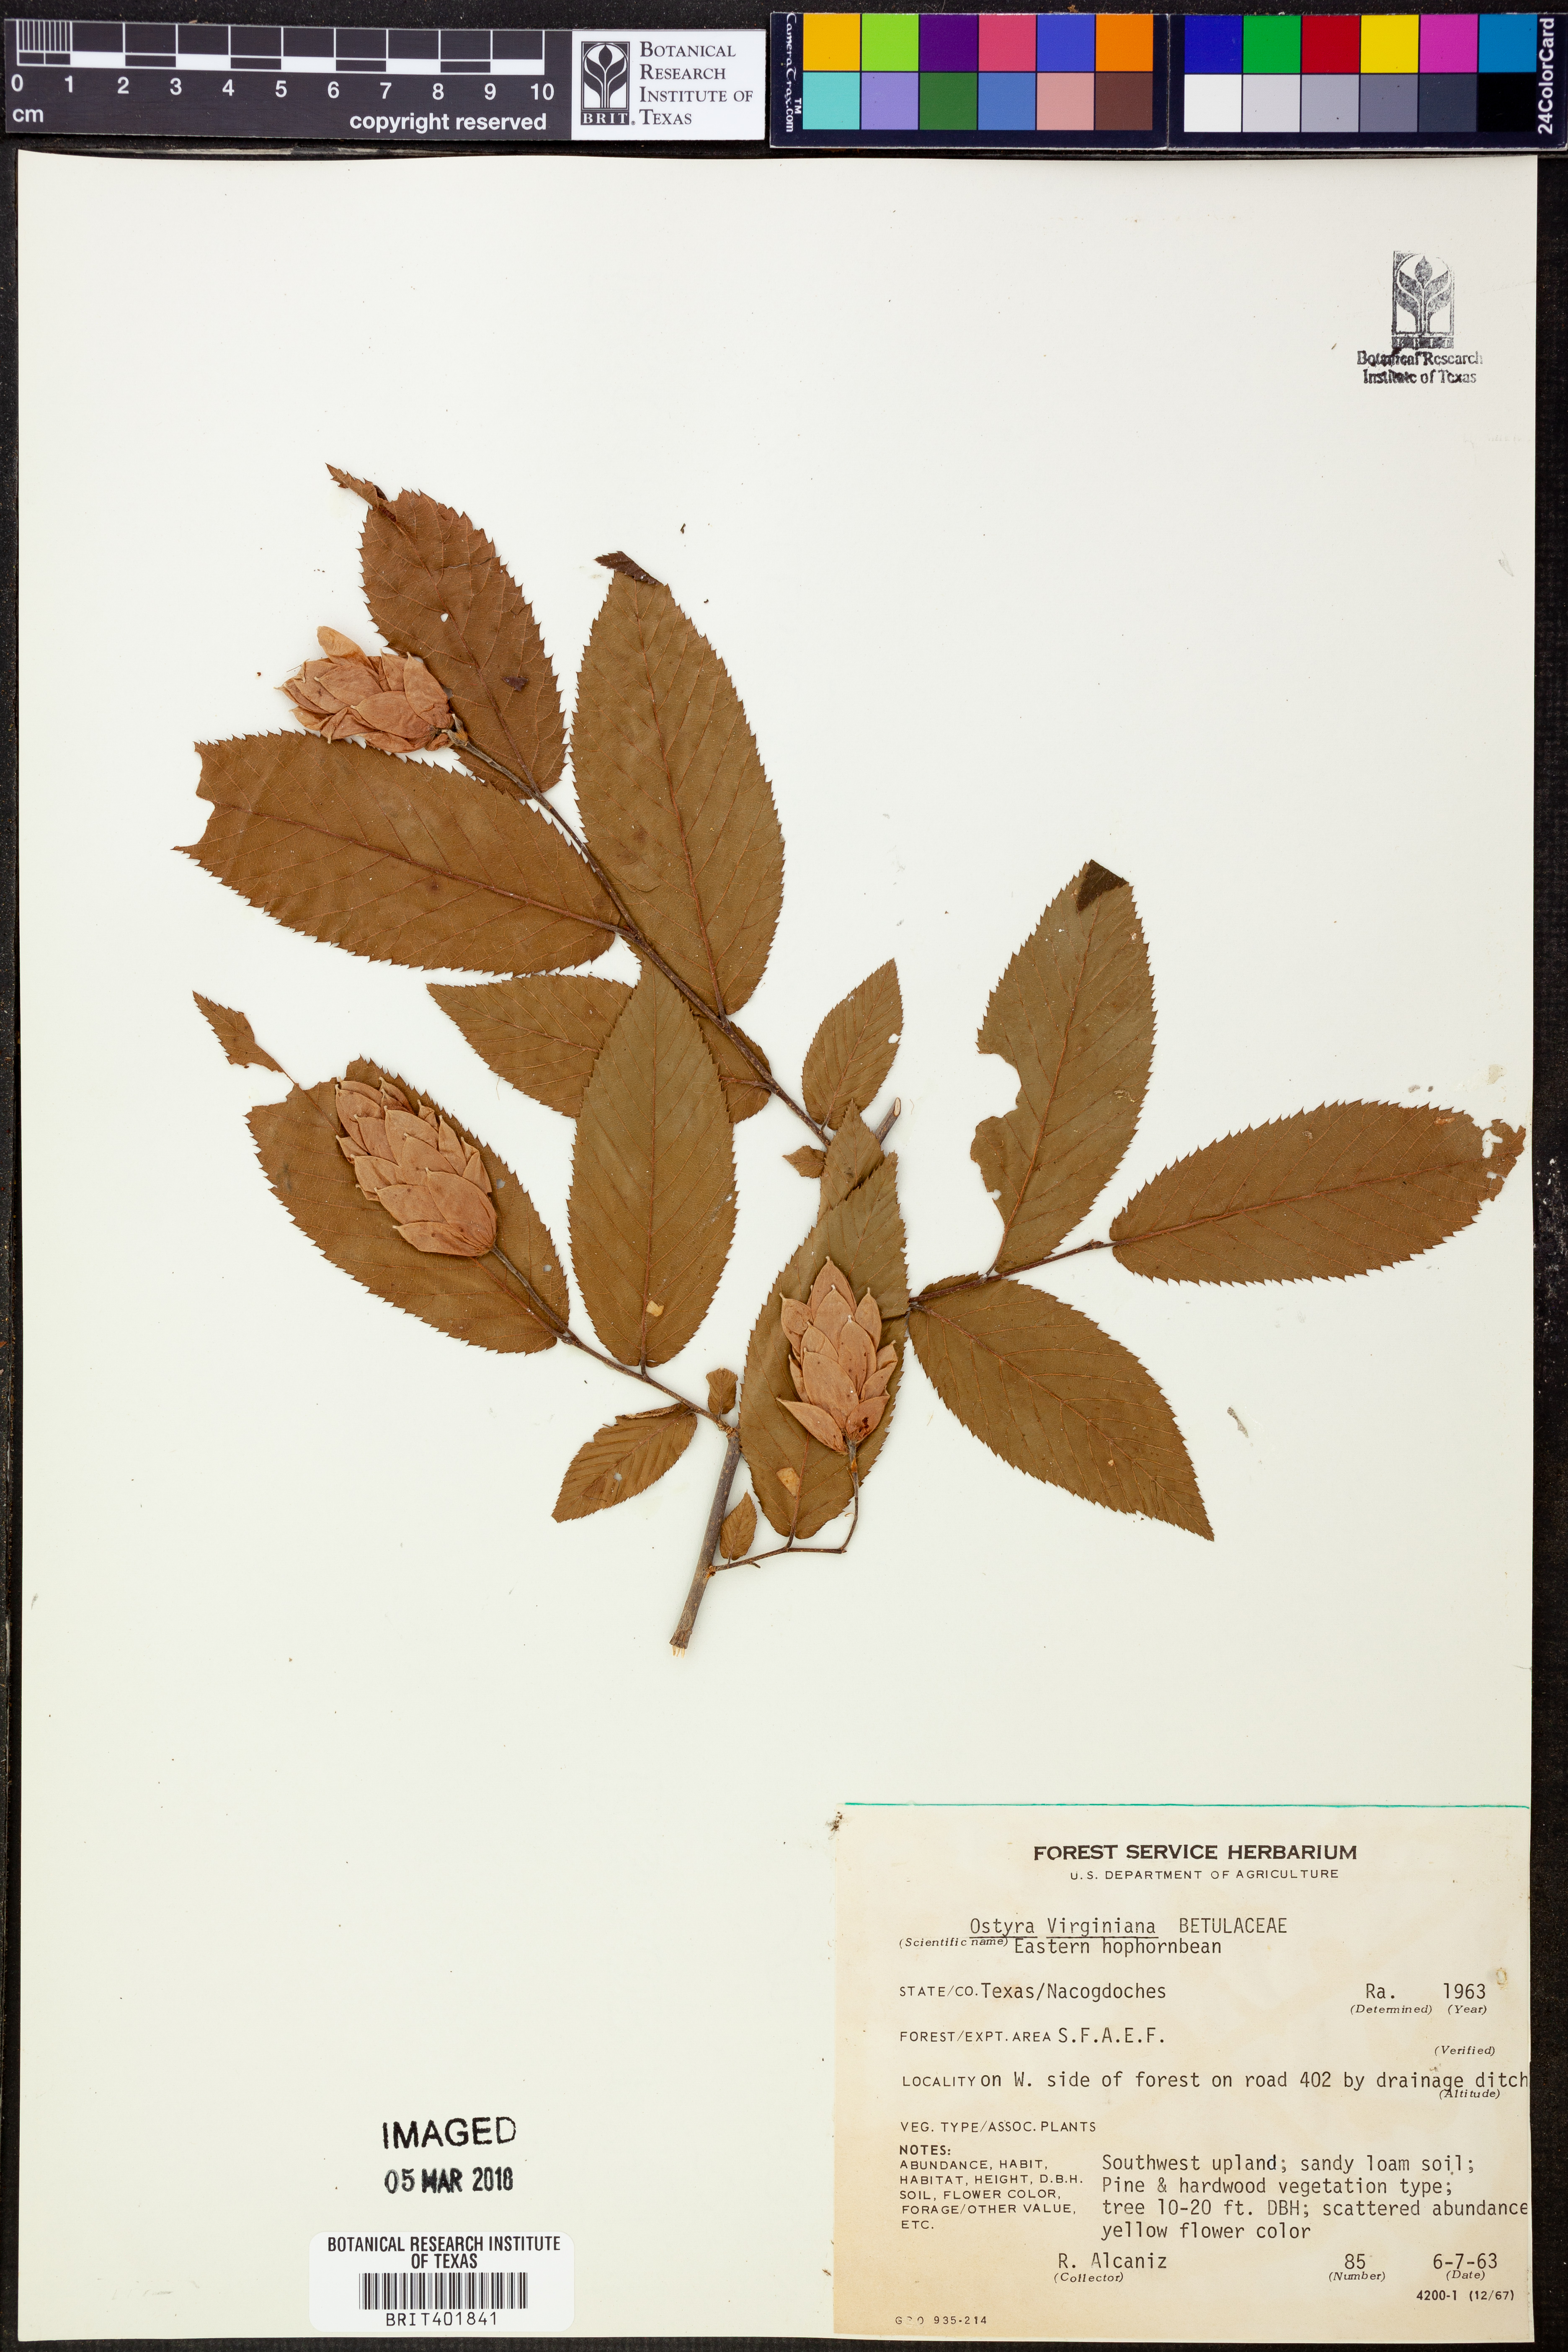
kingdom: Plantae
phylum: Tracheophyta
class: Magnoliopsida
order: Fagales
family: Betulaceae
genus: Ostrya
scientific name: Ostrya virginiana
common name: Ironwood
